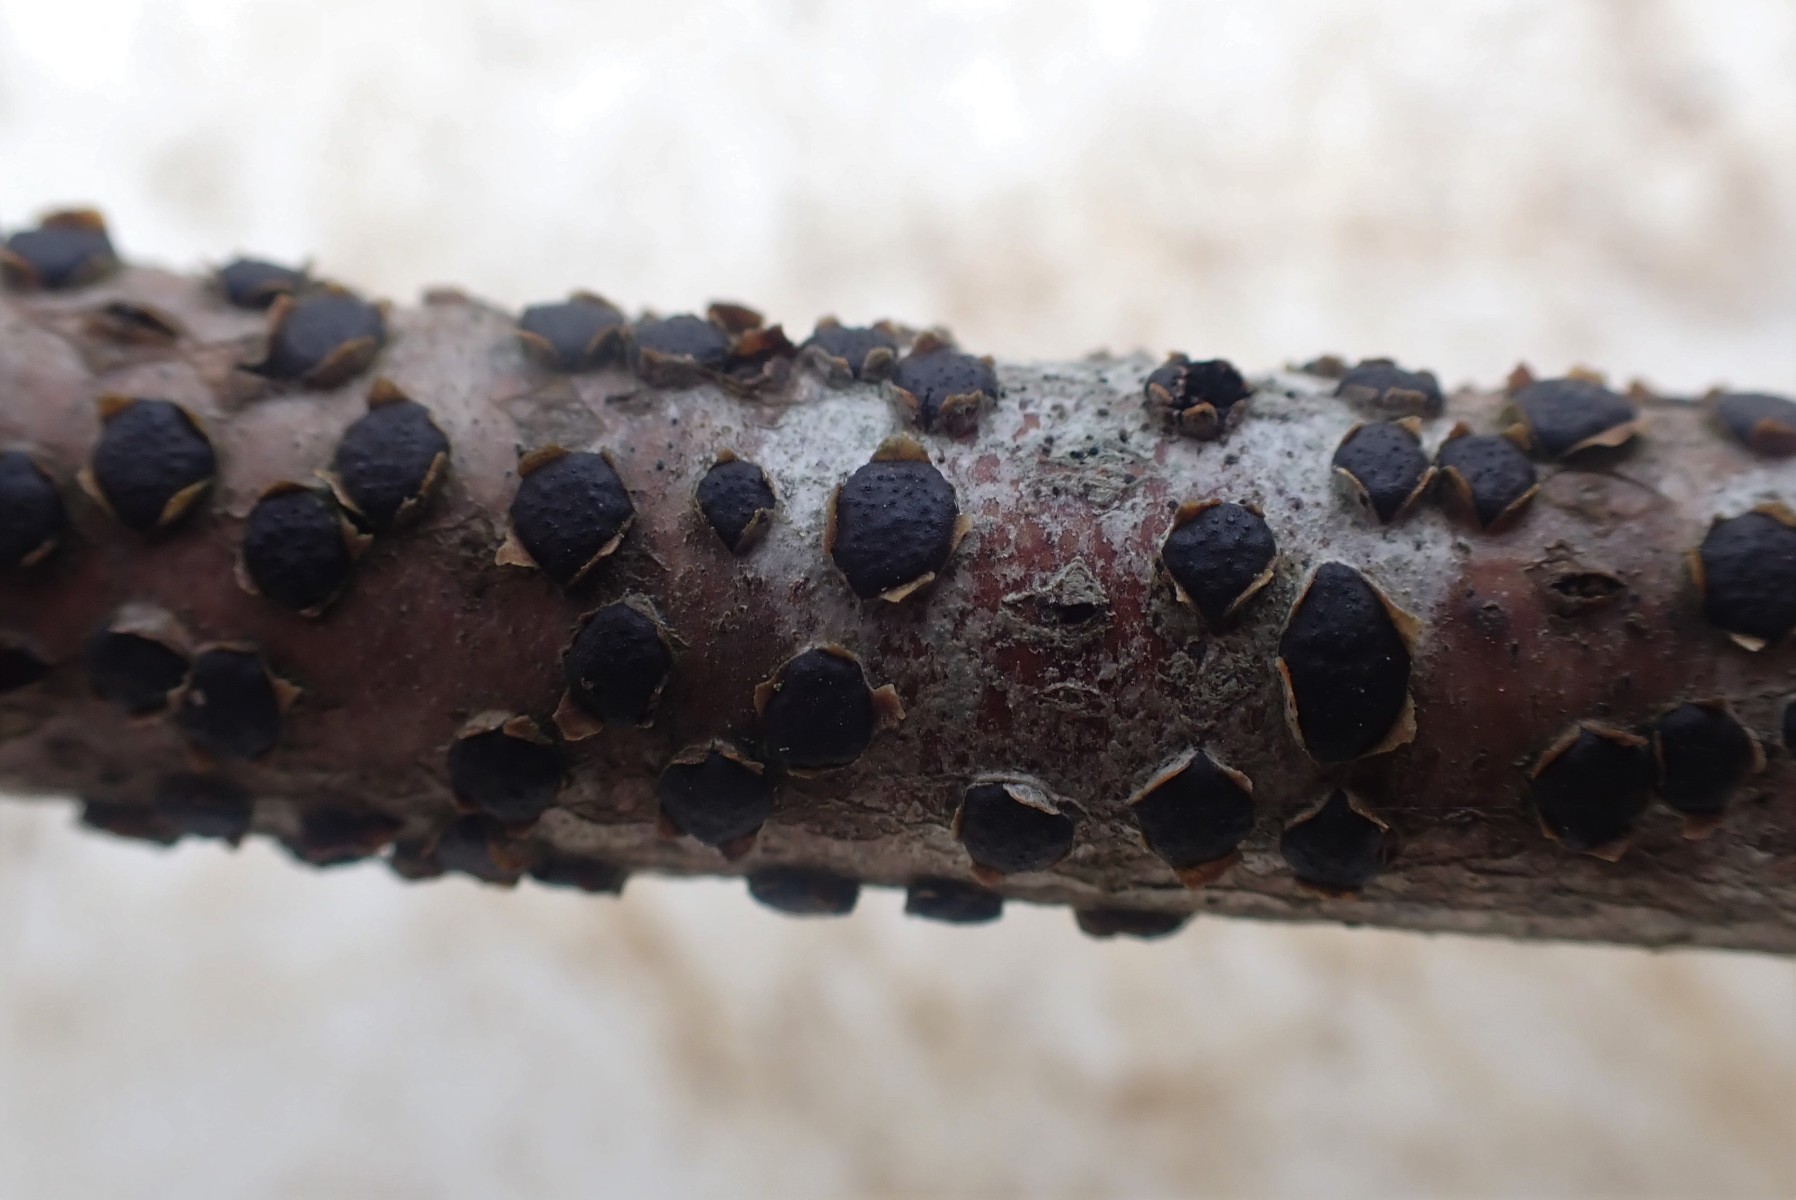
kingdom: Fungi
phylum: Ascomycota
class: Sordariomycetes
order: Xylariales
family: Diatrypaceae
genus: Diatrype
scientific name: Diatrype disciformis
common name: kant-kulskorpe
